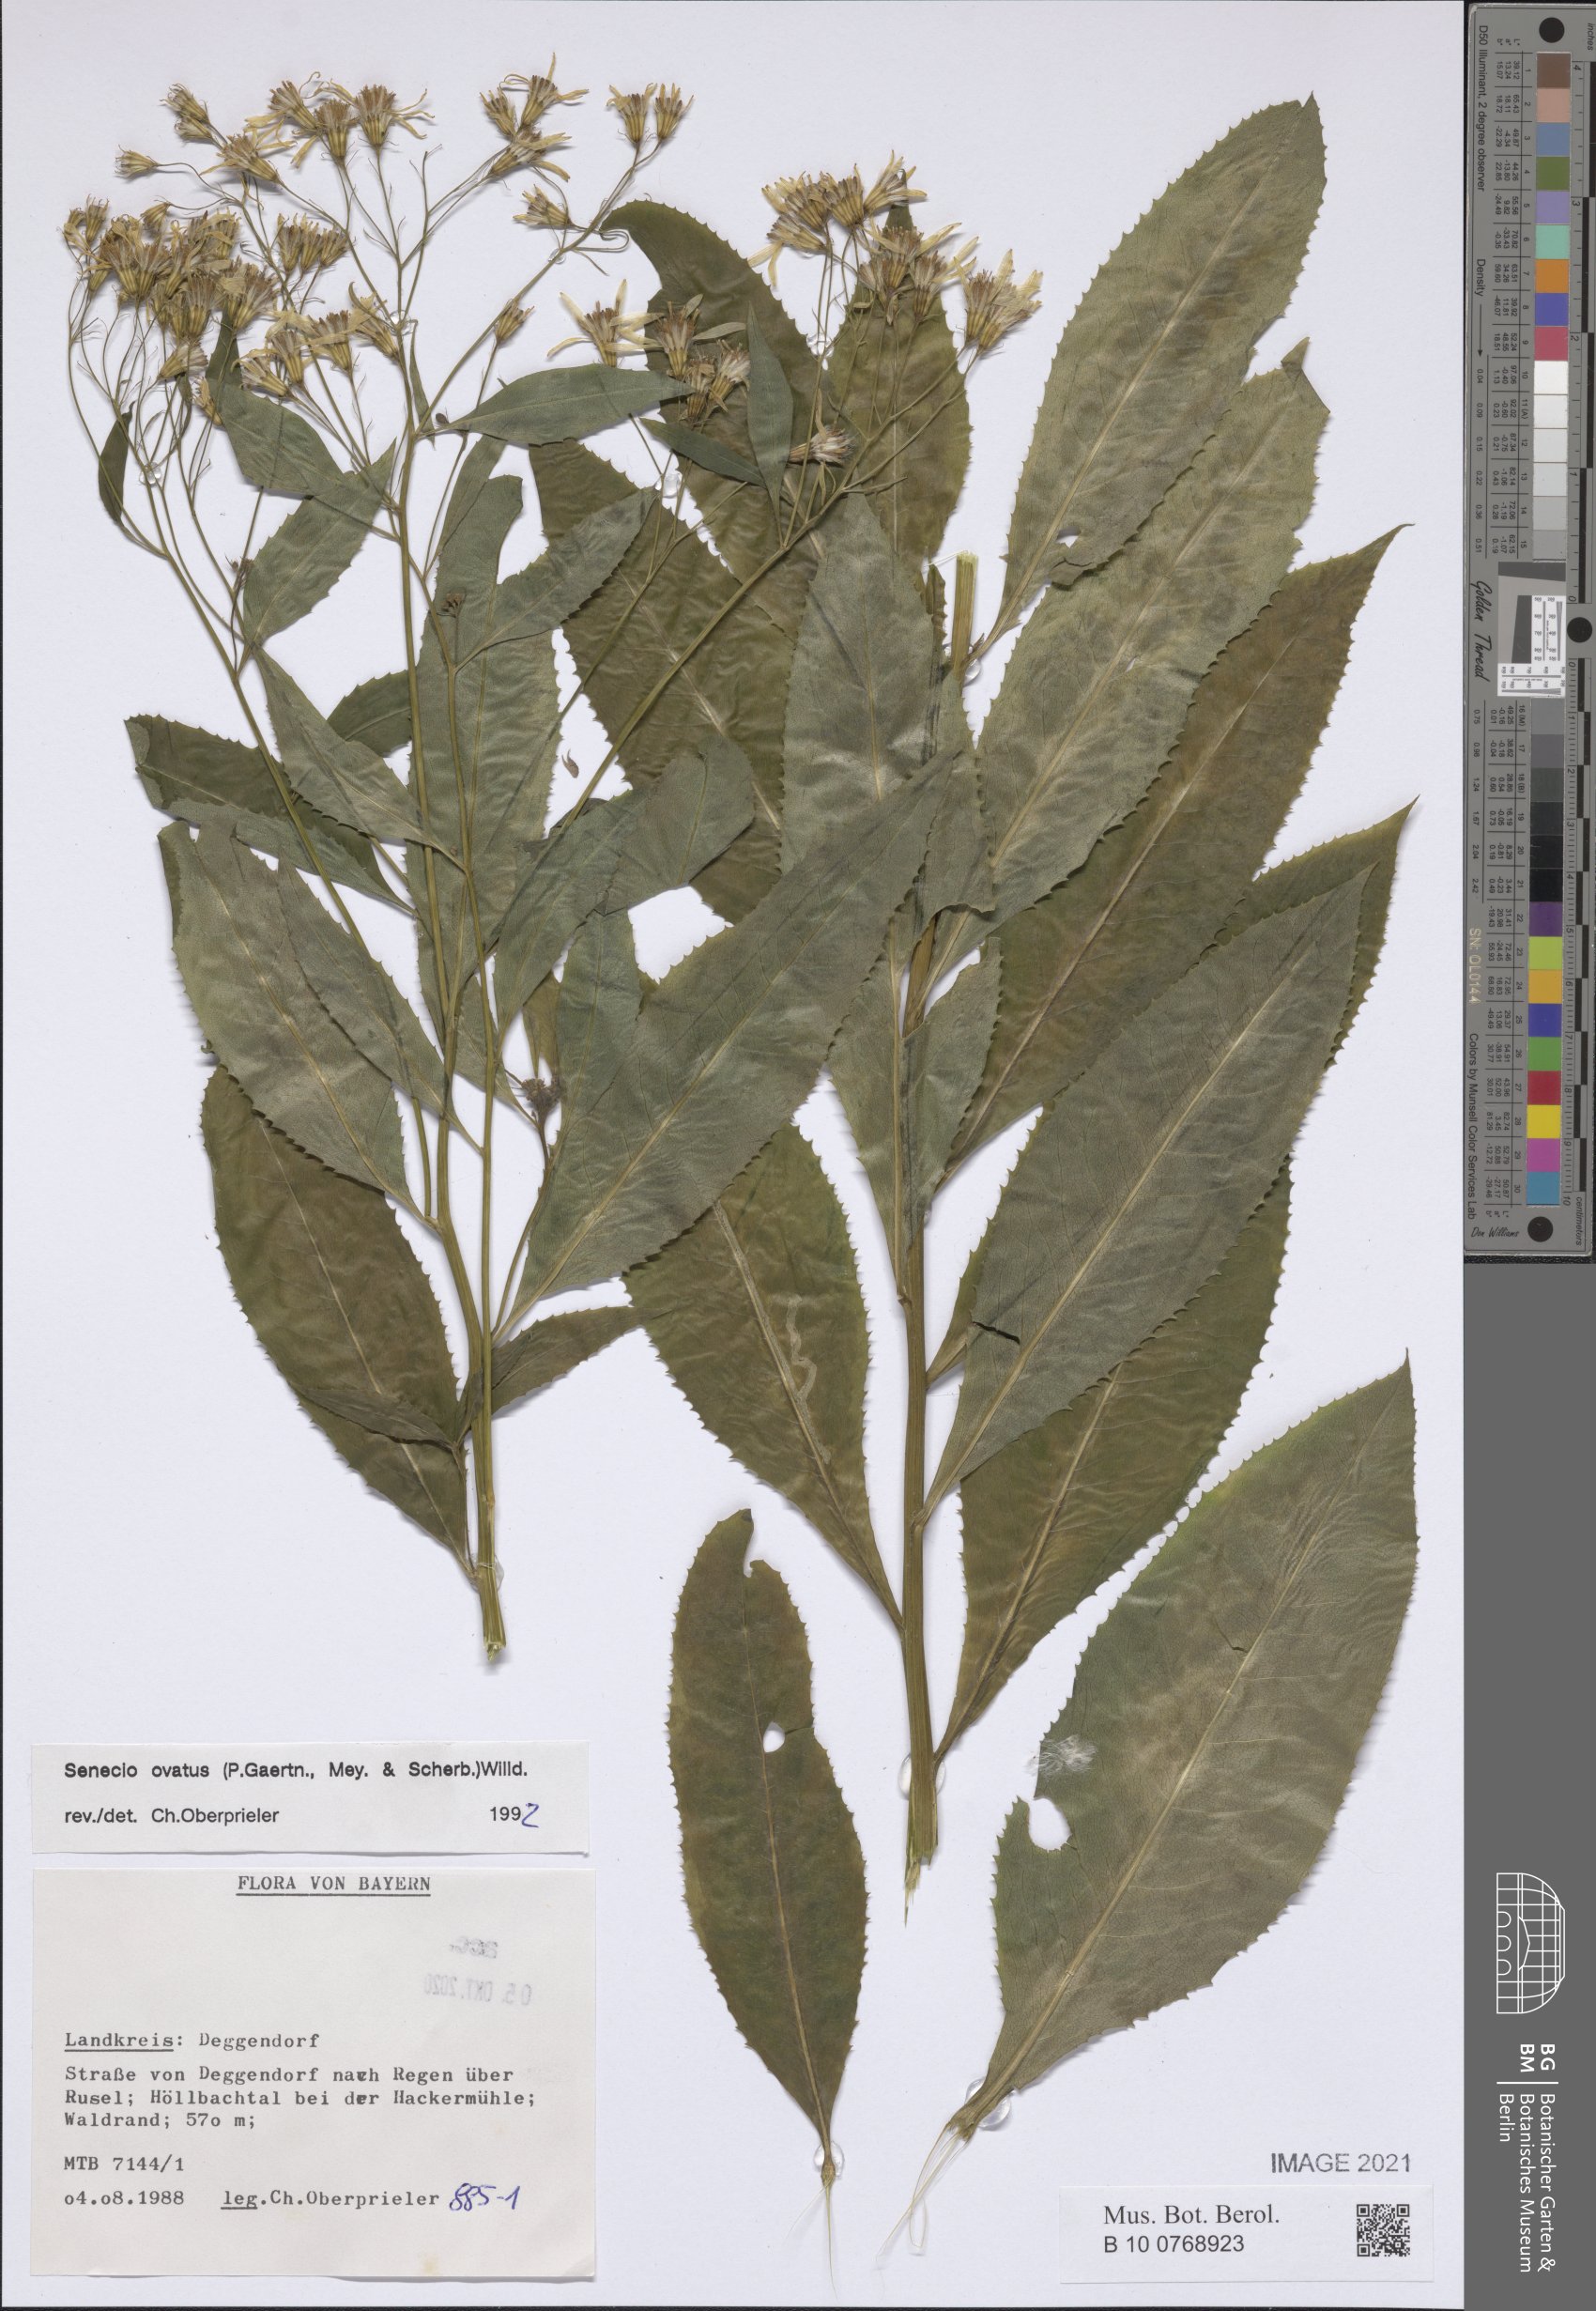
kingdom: Plantae
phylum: Tracheophyta
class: Magnoliopsida
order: Asterales
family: Asteraceae
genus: Senecio
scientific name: Senecio ovatus
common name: Wood ragwort
